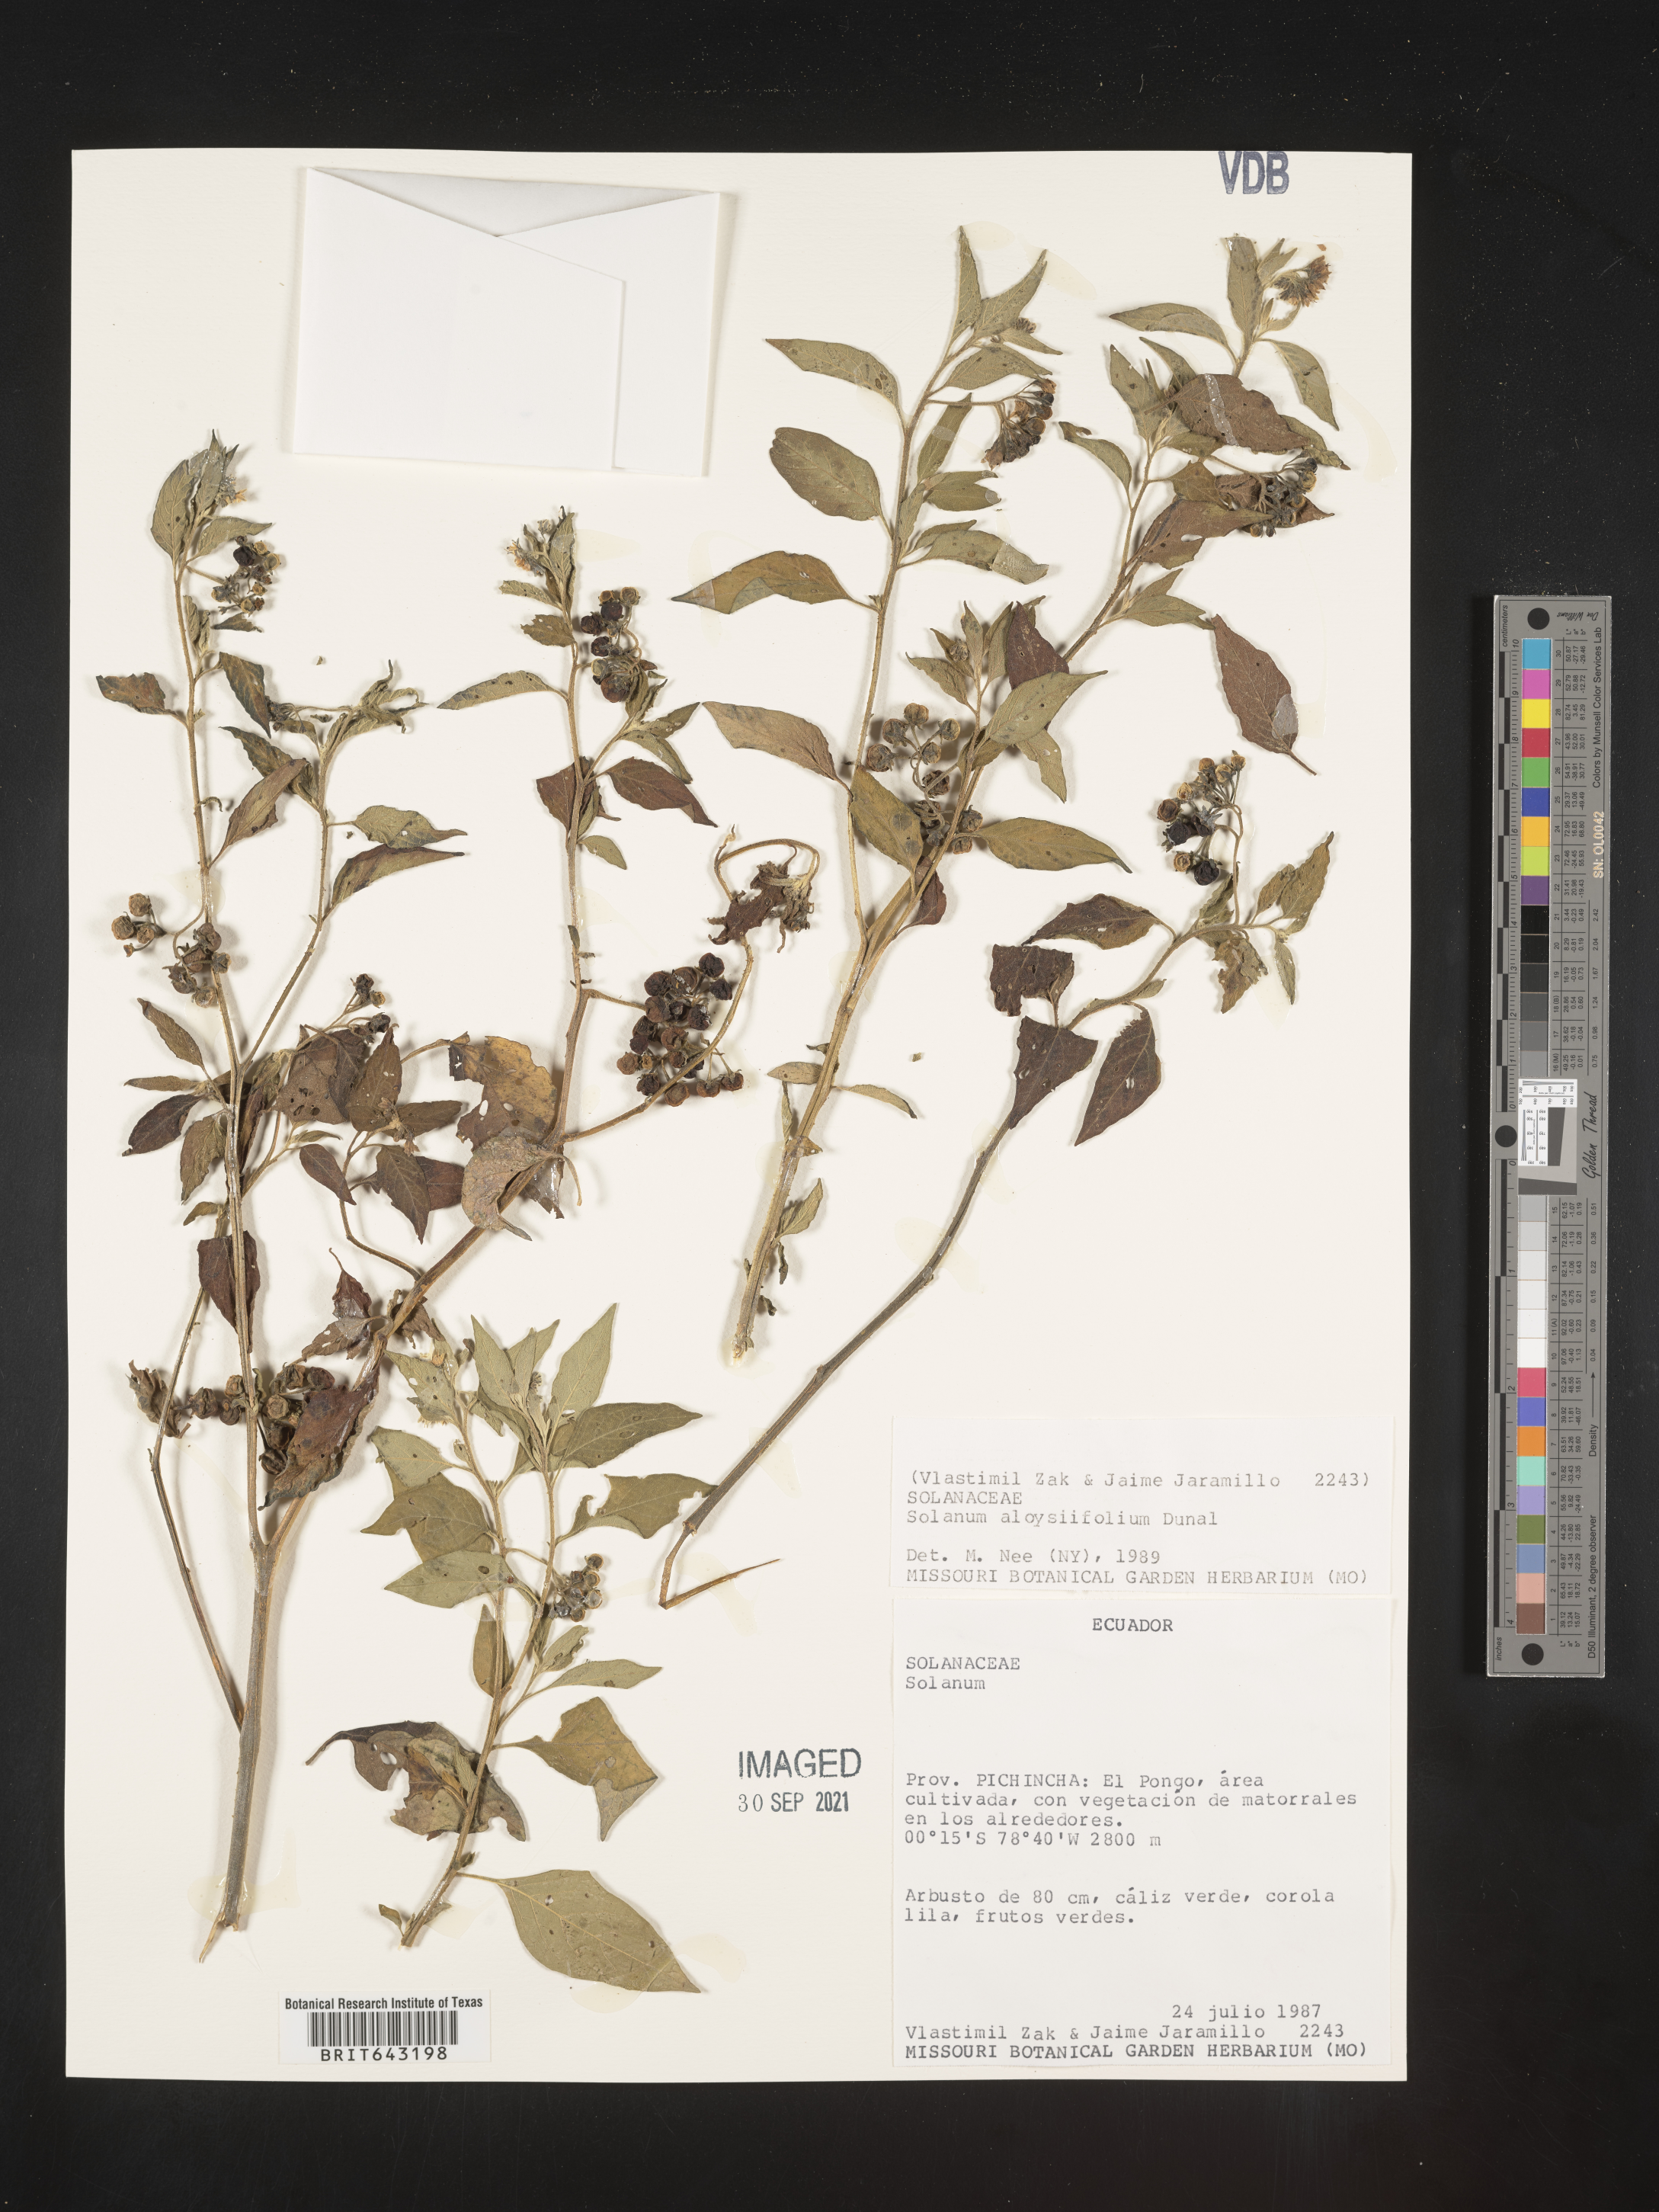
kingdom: Plantae
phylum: Tracheophyta
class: Magnoliopsida
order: Solanales
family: Solanaceae
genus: Solanum
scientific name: Solanum
